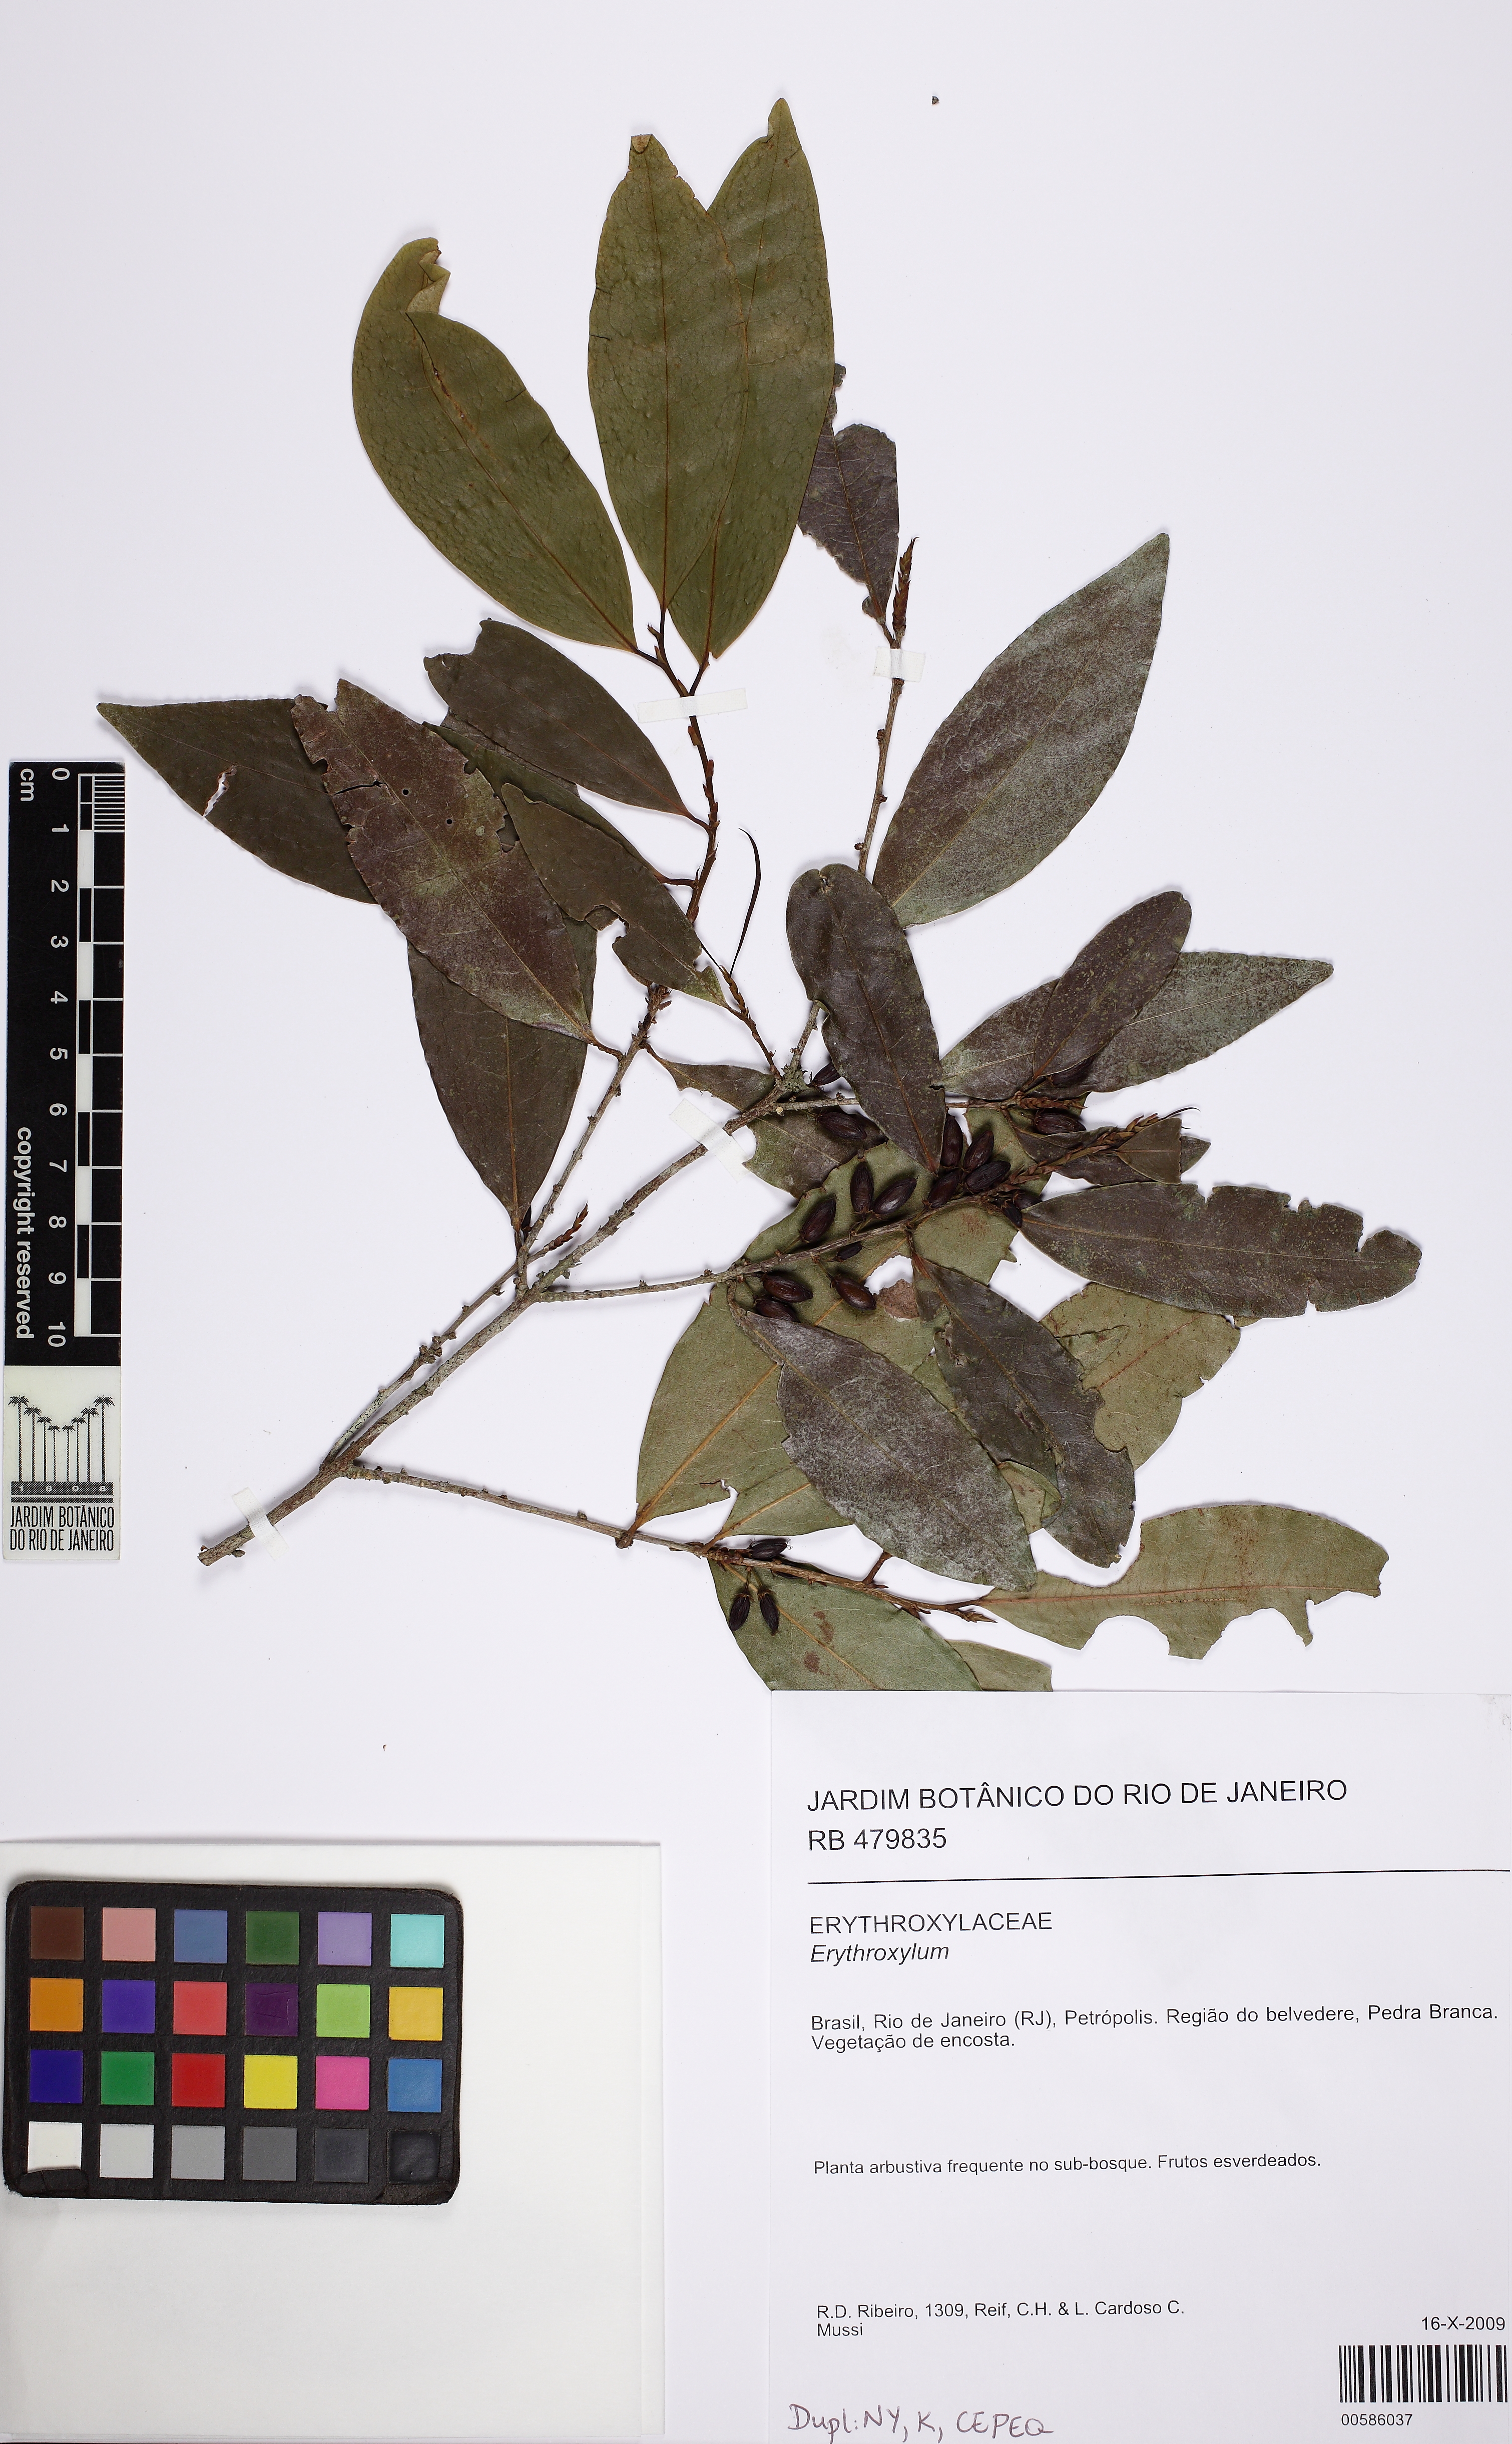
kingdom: Plantae
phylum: Tracheophyta
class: Magnoliopsida
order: Malpighiales
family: Erythroxylaceae
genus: Erythroxylum
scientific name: Erythroxylum citrifolium
